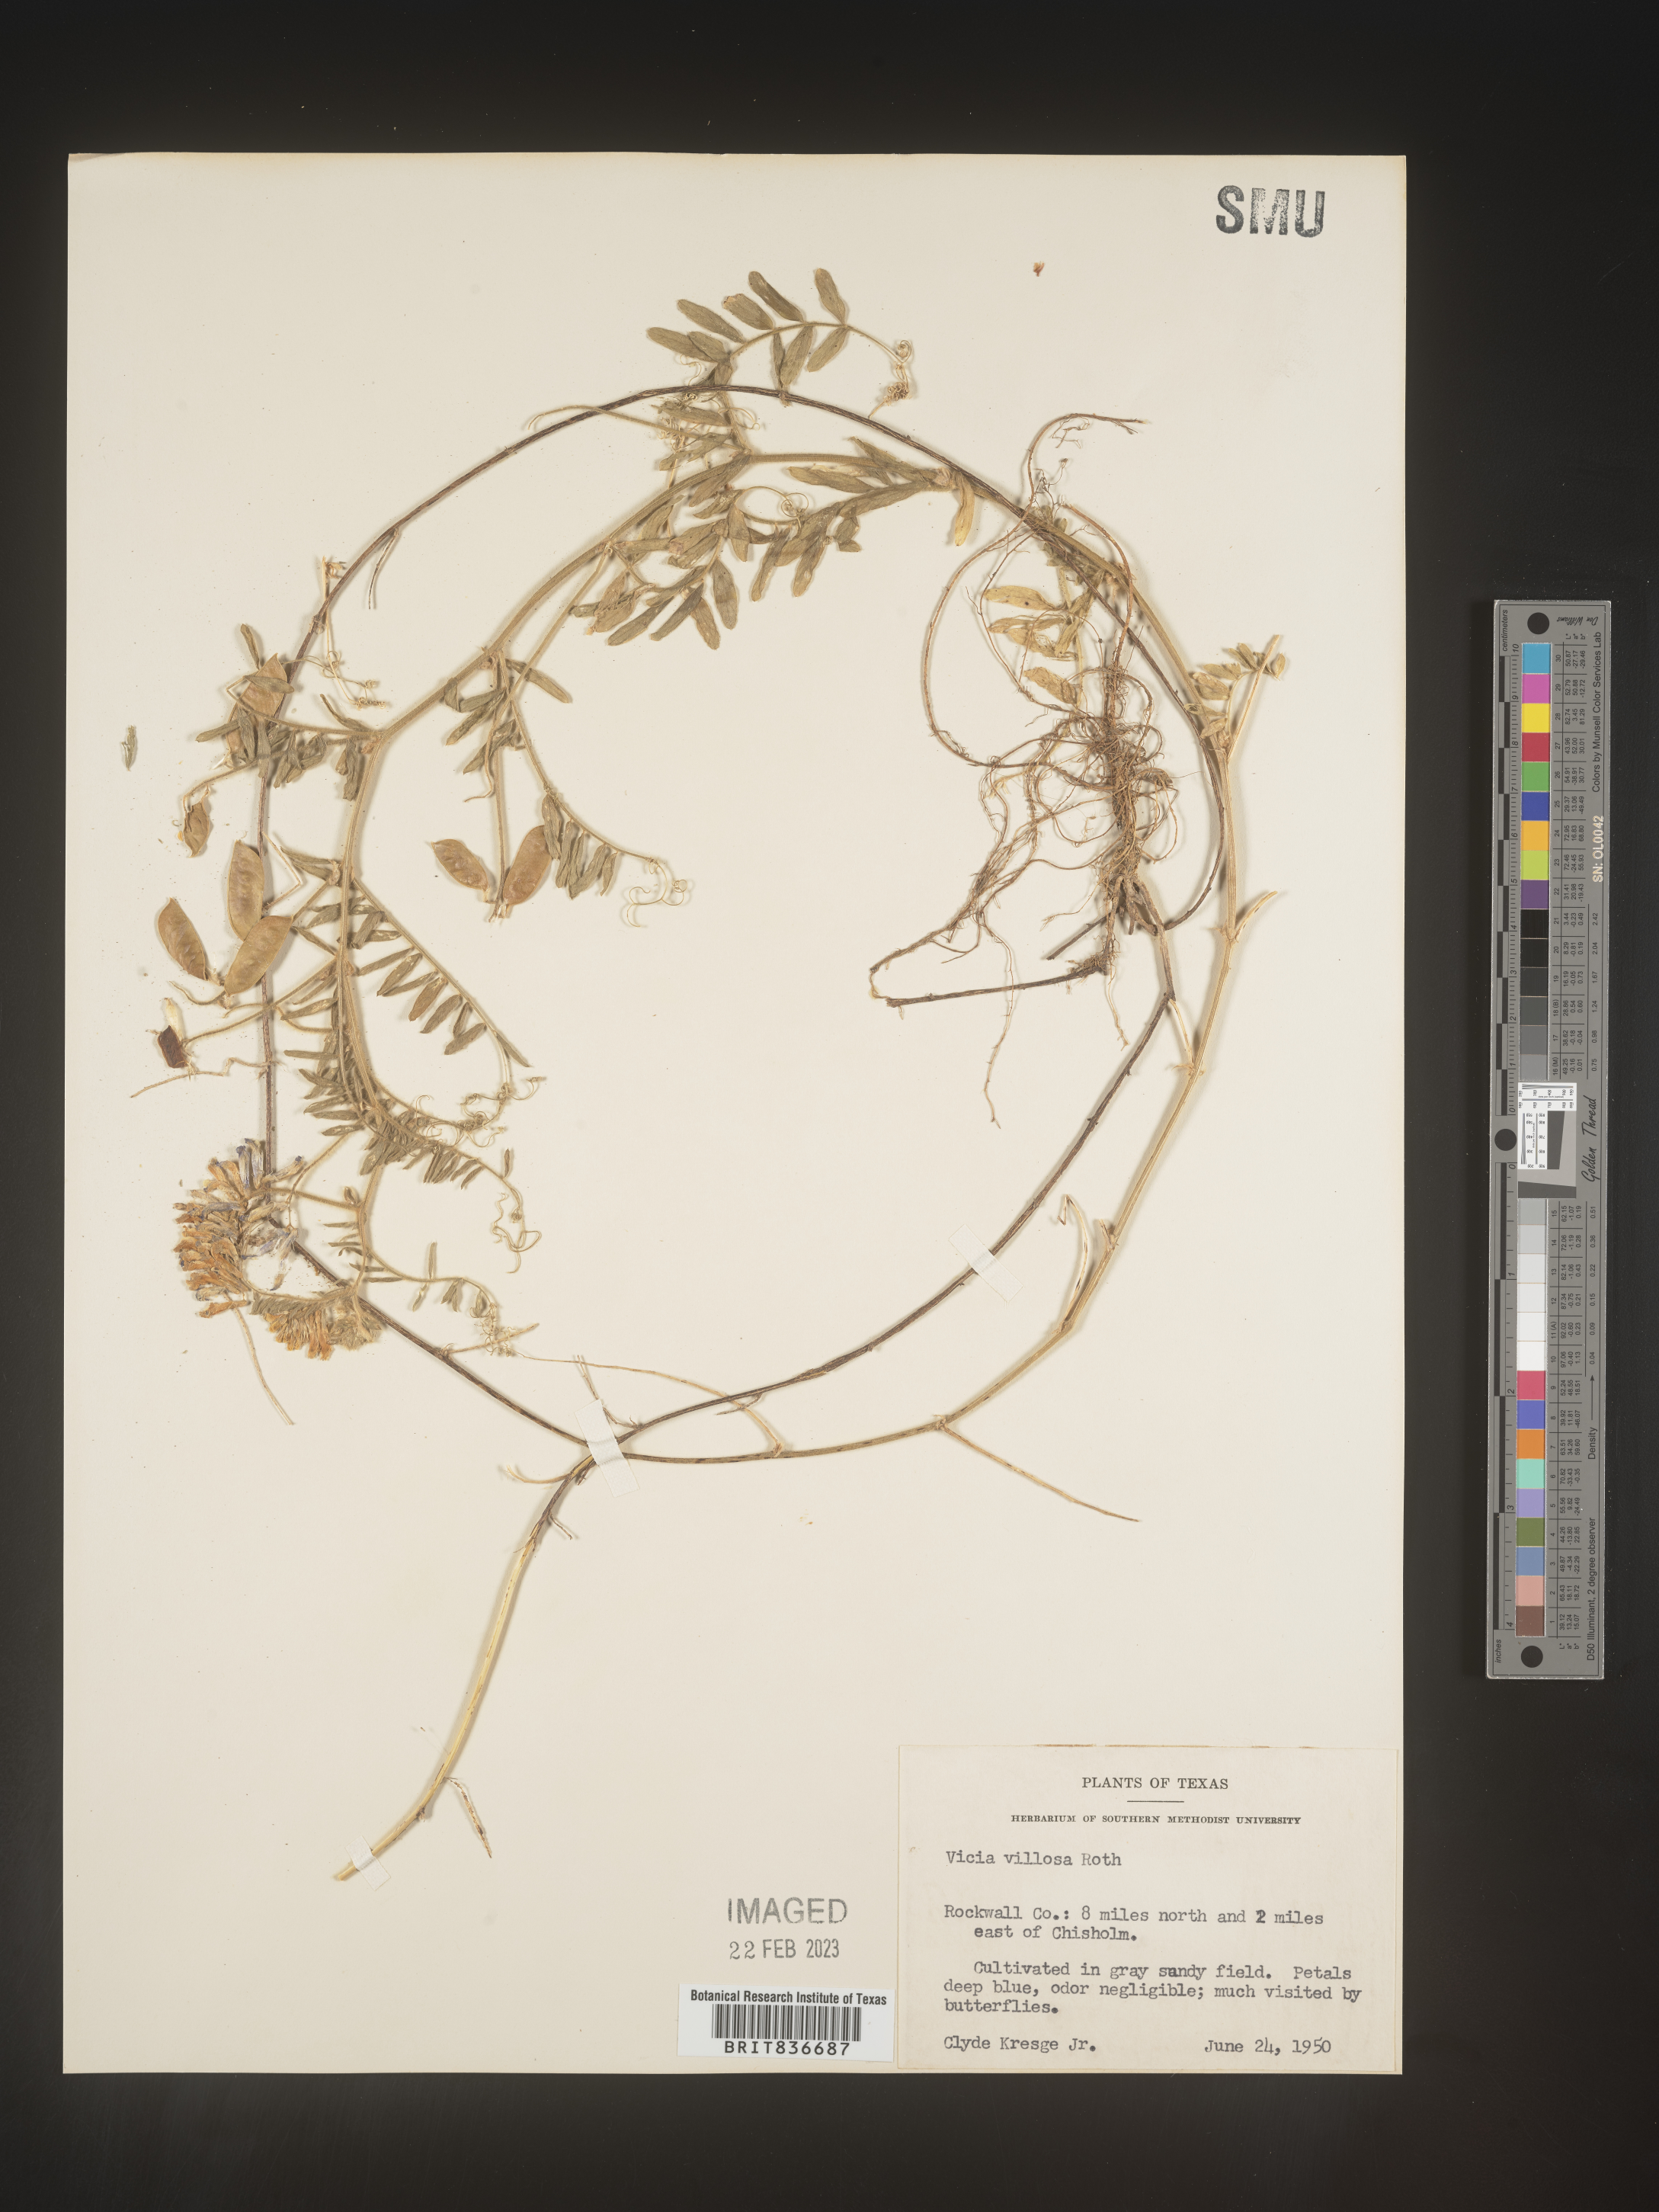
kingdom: Plantae
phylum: Tracheophyta
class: Magnoliopsida
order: Fabales
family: Fabaceae
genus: Vicia
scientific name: Vicia
